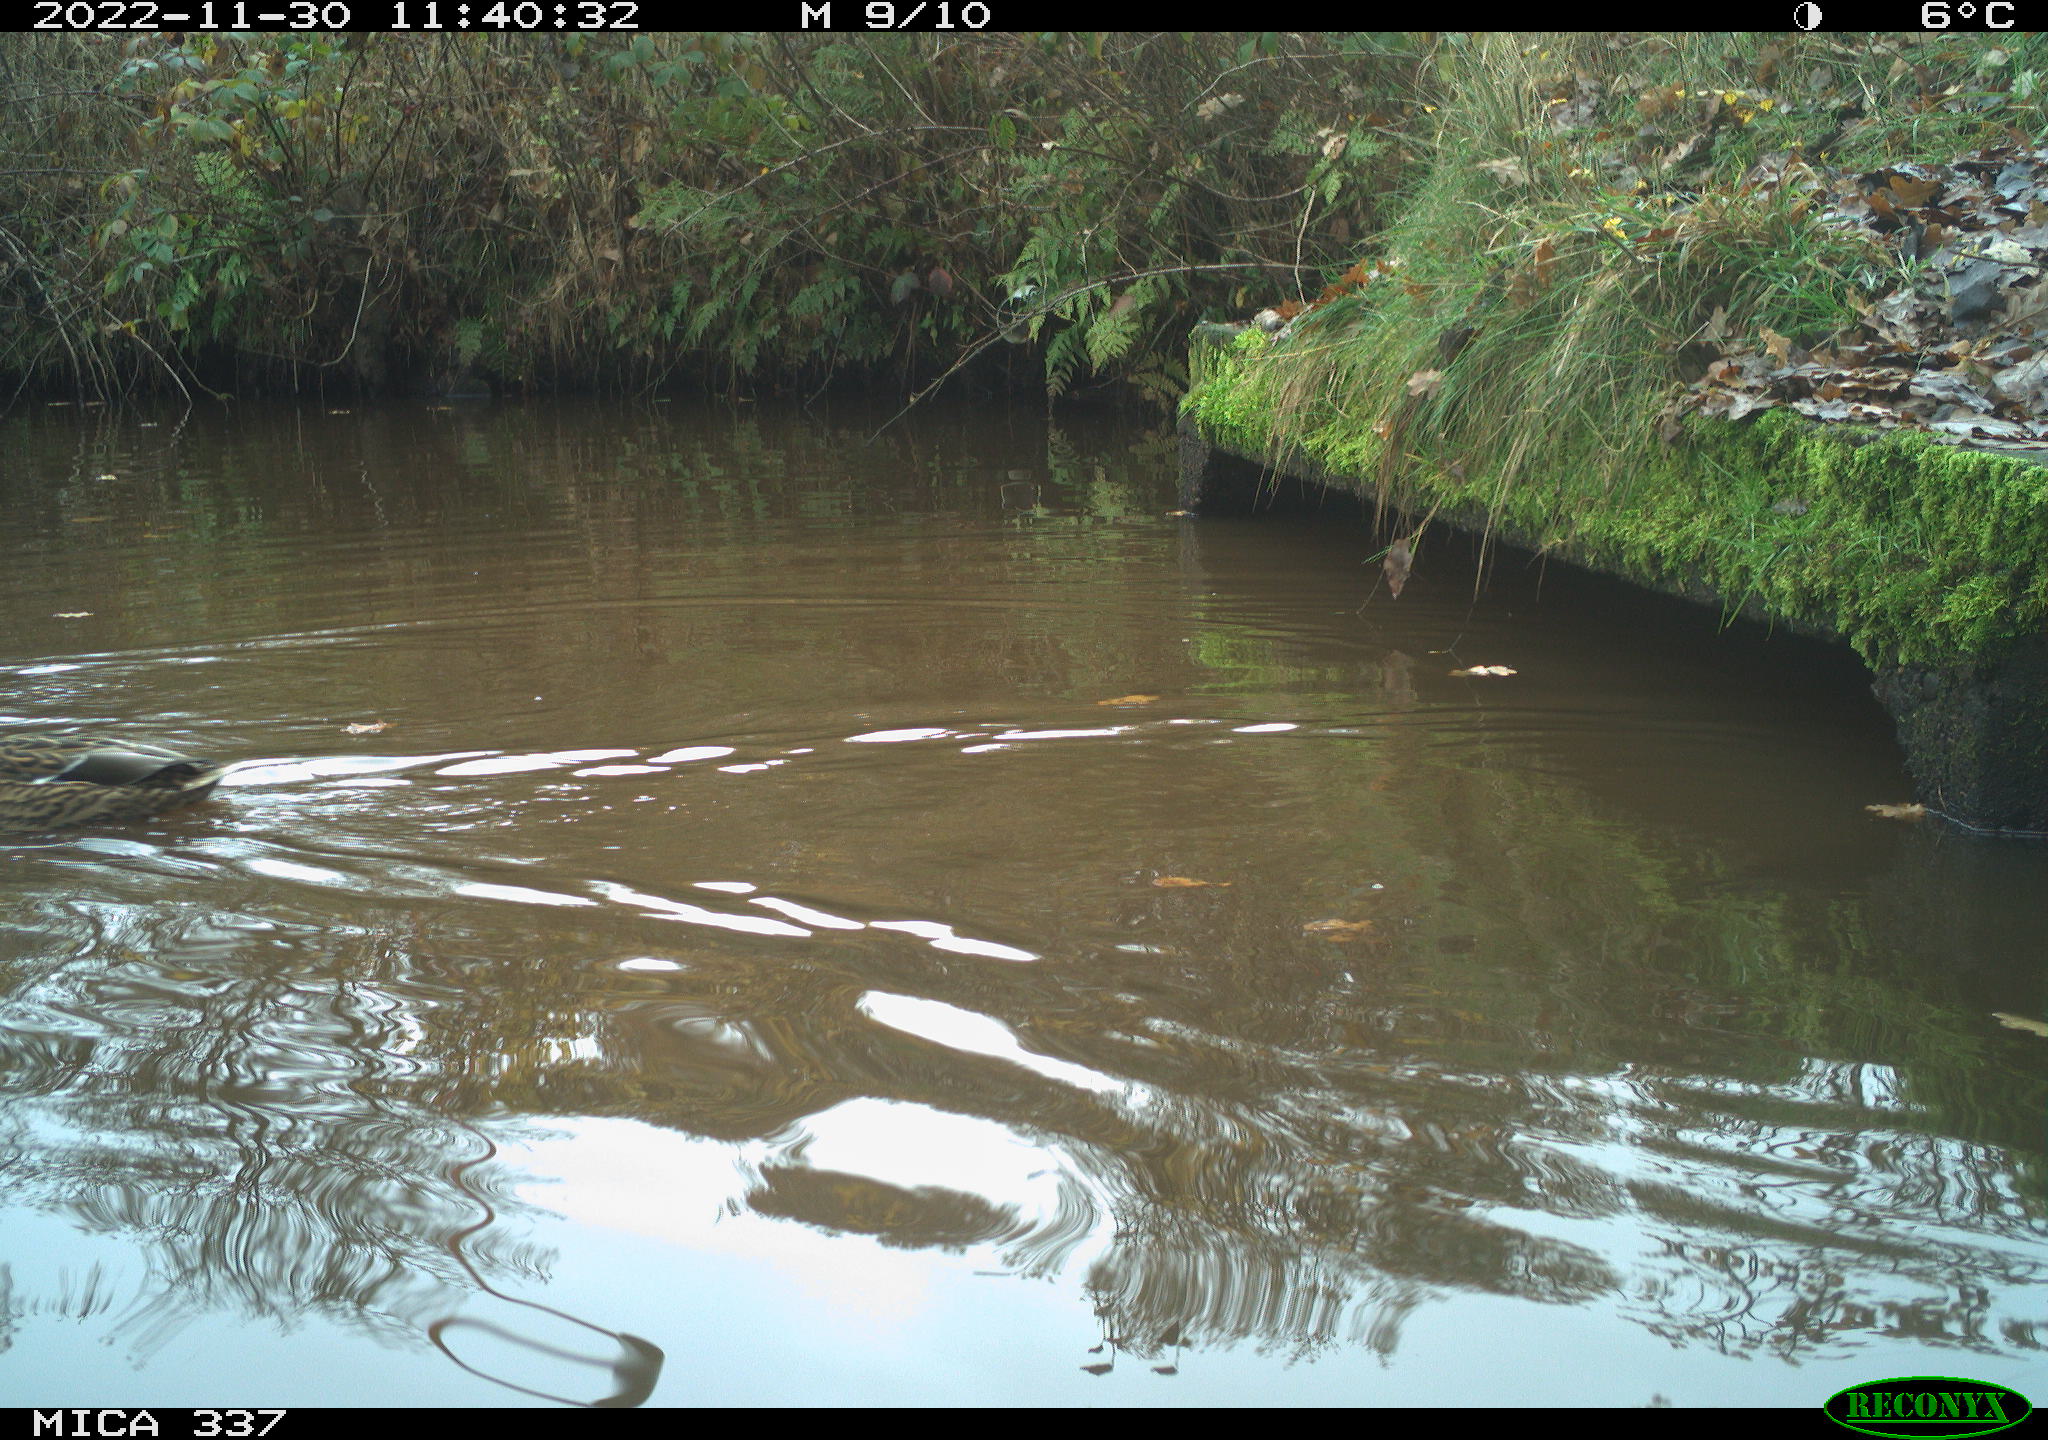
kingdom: Animalia
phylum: Chordata
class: Aves
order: Anseriformes
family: Anatidae
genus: Anas
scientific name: Anas
